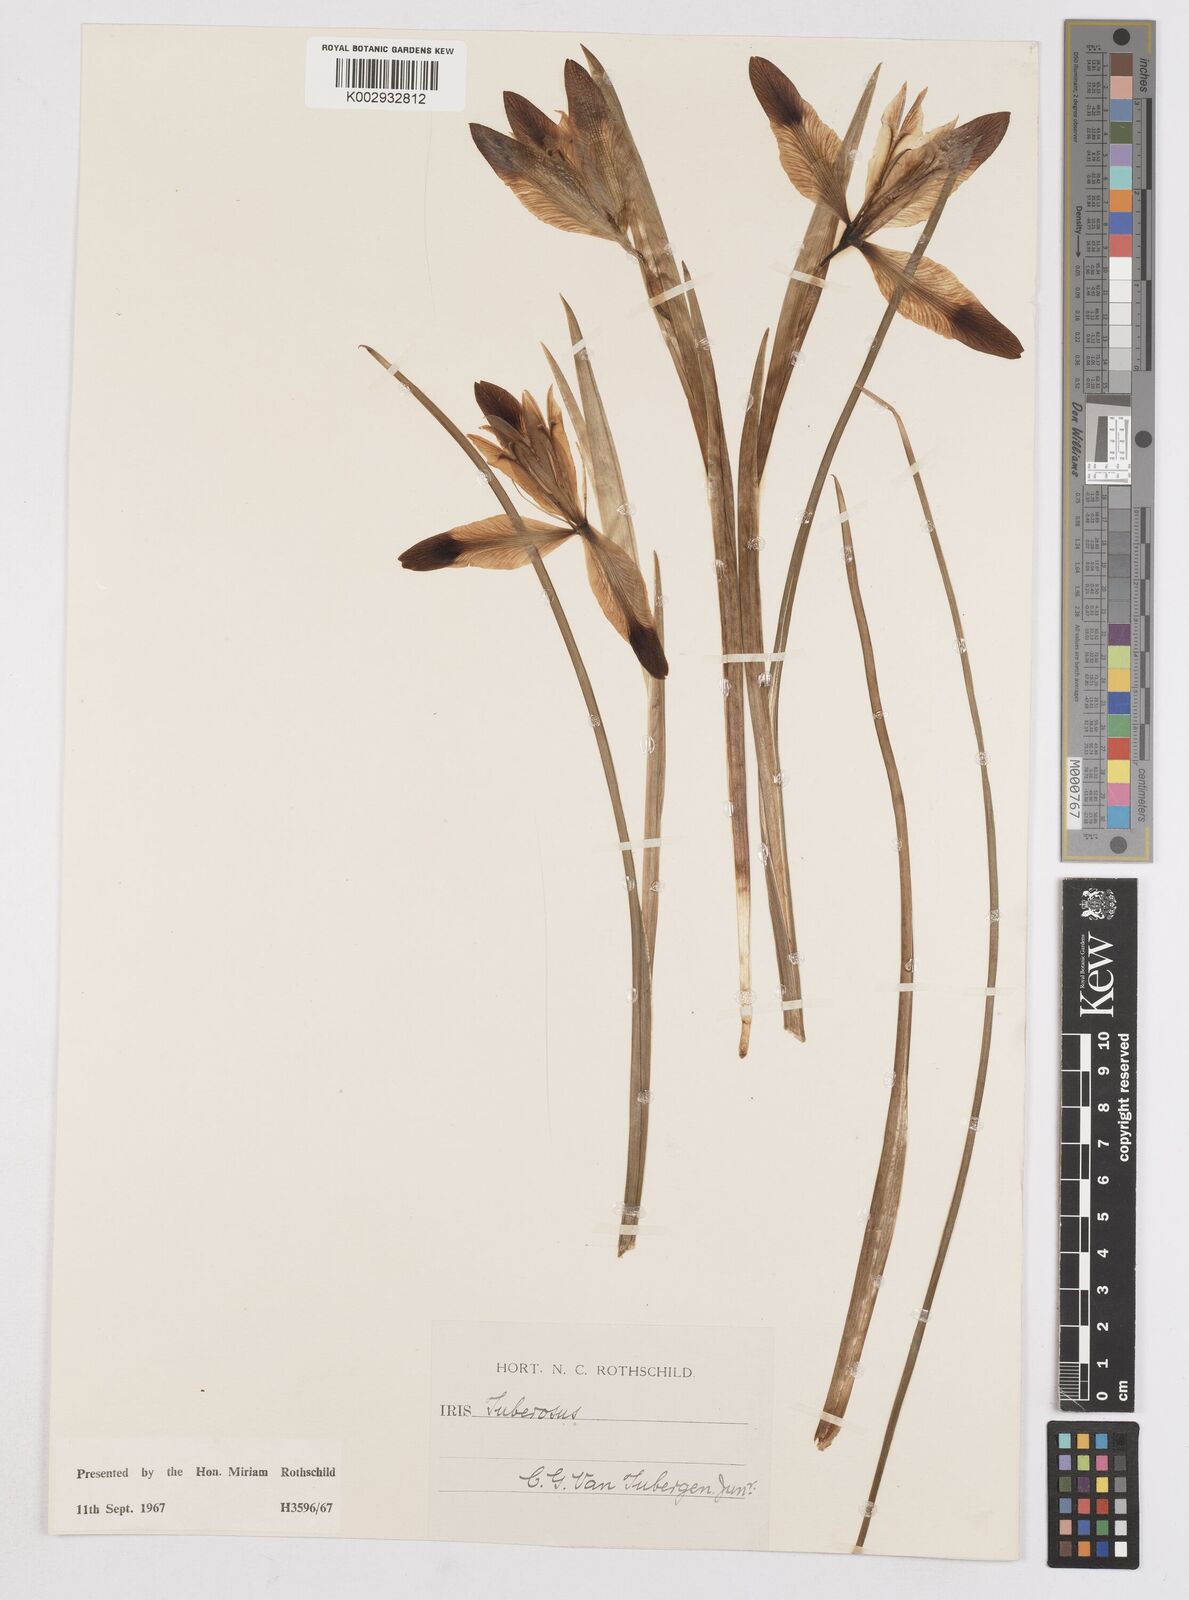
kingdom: Plantae
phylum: Tracheophyta
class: Liliopsida
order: Asparagales
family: Iridaceae
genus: Iris
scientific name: Iris tuberosa
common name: Snake's-head iris
